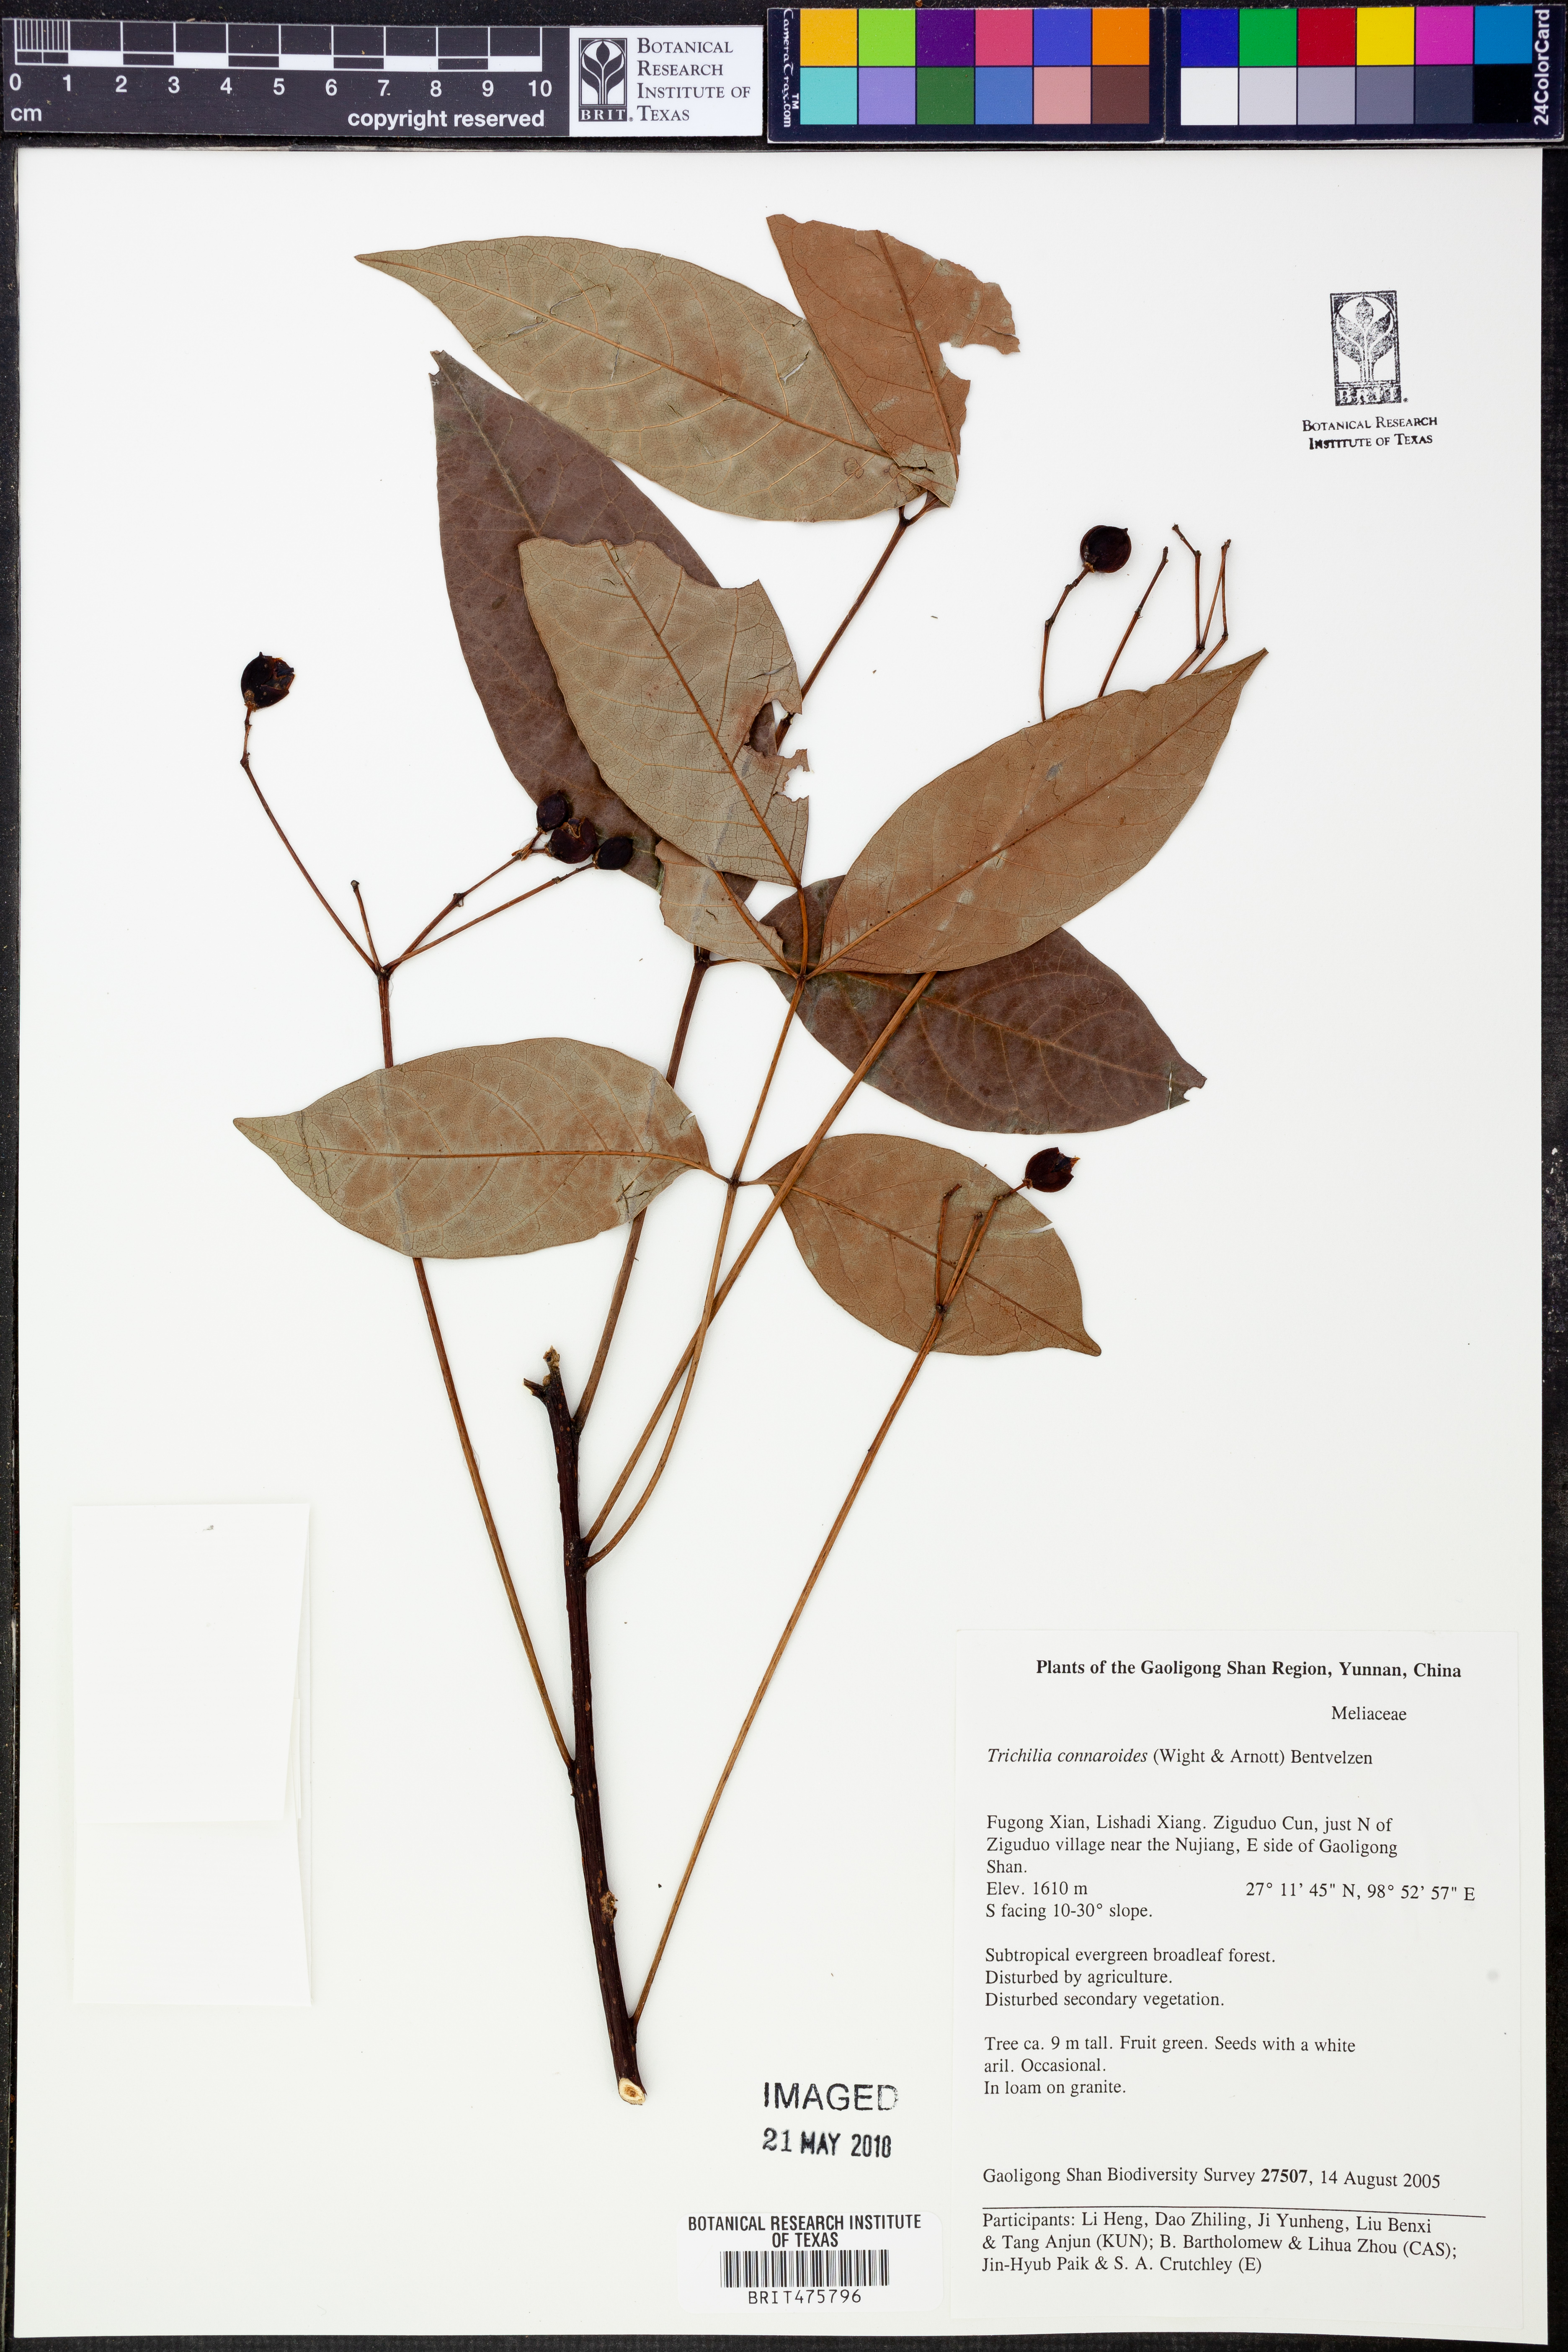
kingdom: Plantae
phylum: Tracheophyta
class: Magnoliopsida
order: Sapindales
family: Meliaceae
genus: Heynea
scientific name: Heynea trijuga
